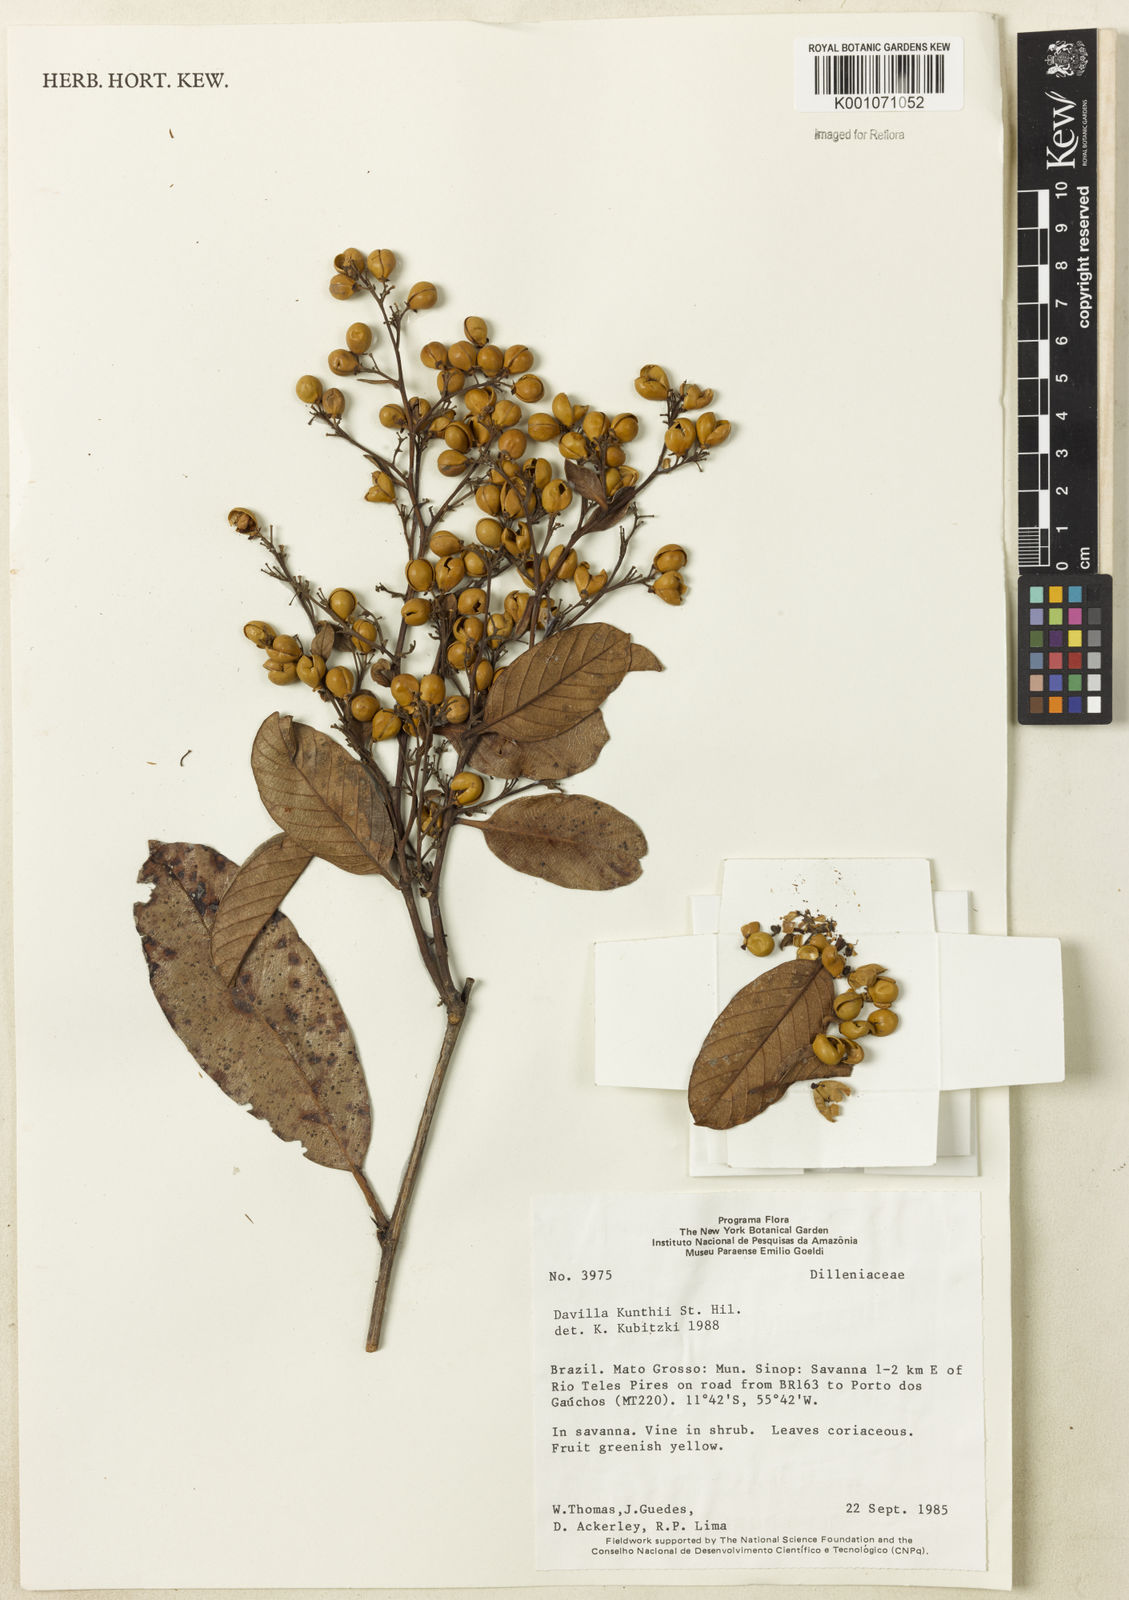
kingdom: Plantae
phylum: Tracheophyta
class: Magnoliopsida
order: Dilleniales
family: Dilleniaceae
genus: Davilla
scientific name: Davilla kunthii
